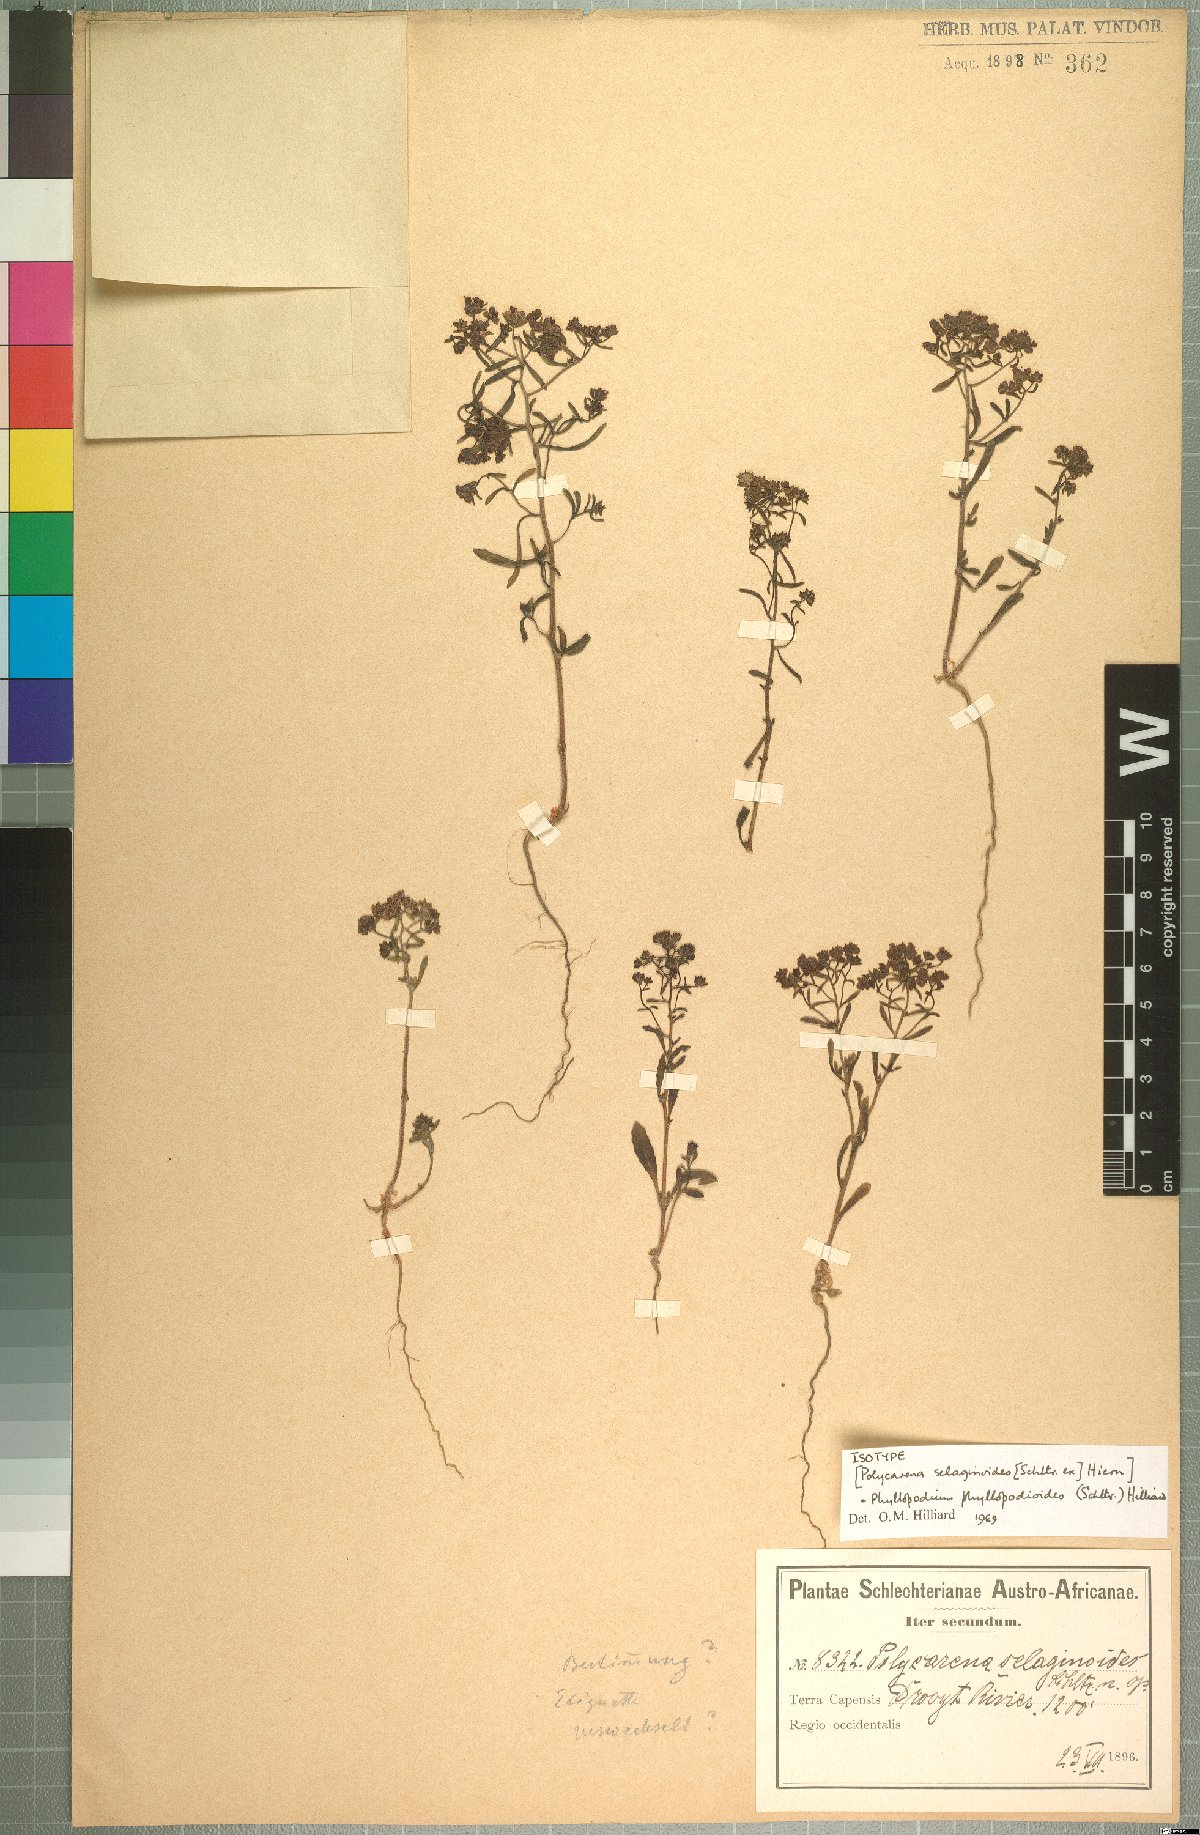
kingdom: Plantae
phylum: Tracheophyta
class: Magnoliopsida
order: Lamiales
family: Scrophulariaceae
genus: Phyllopodium
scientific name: Phyllopodium phyllopodioides
